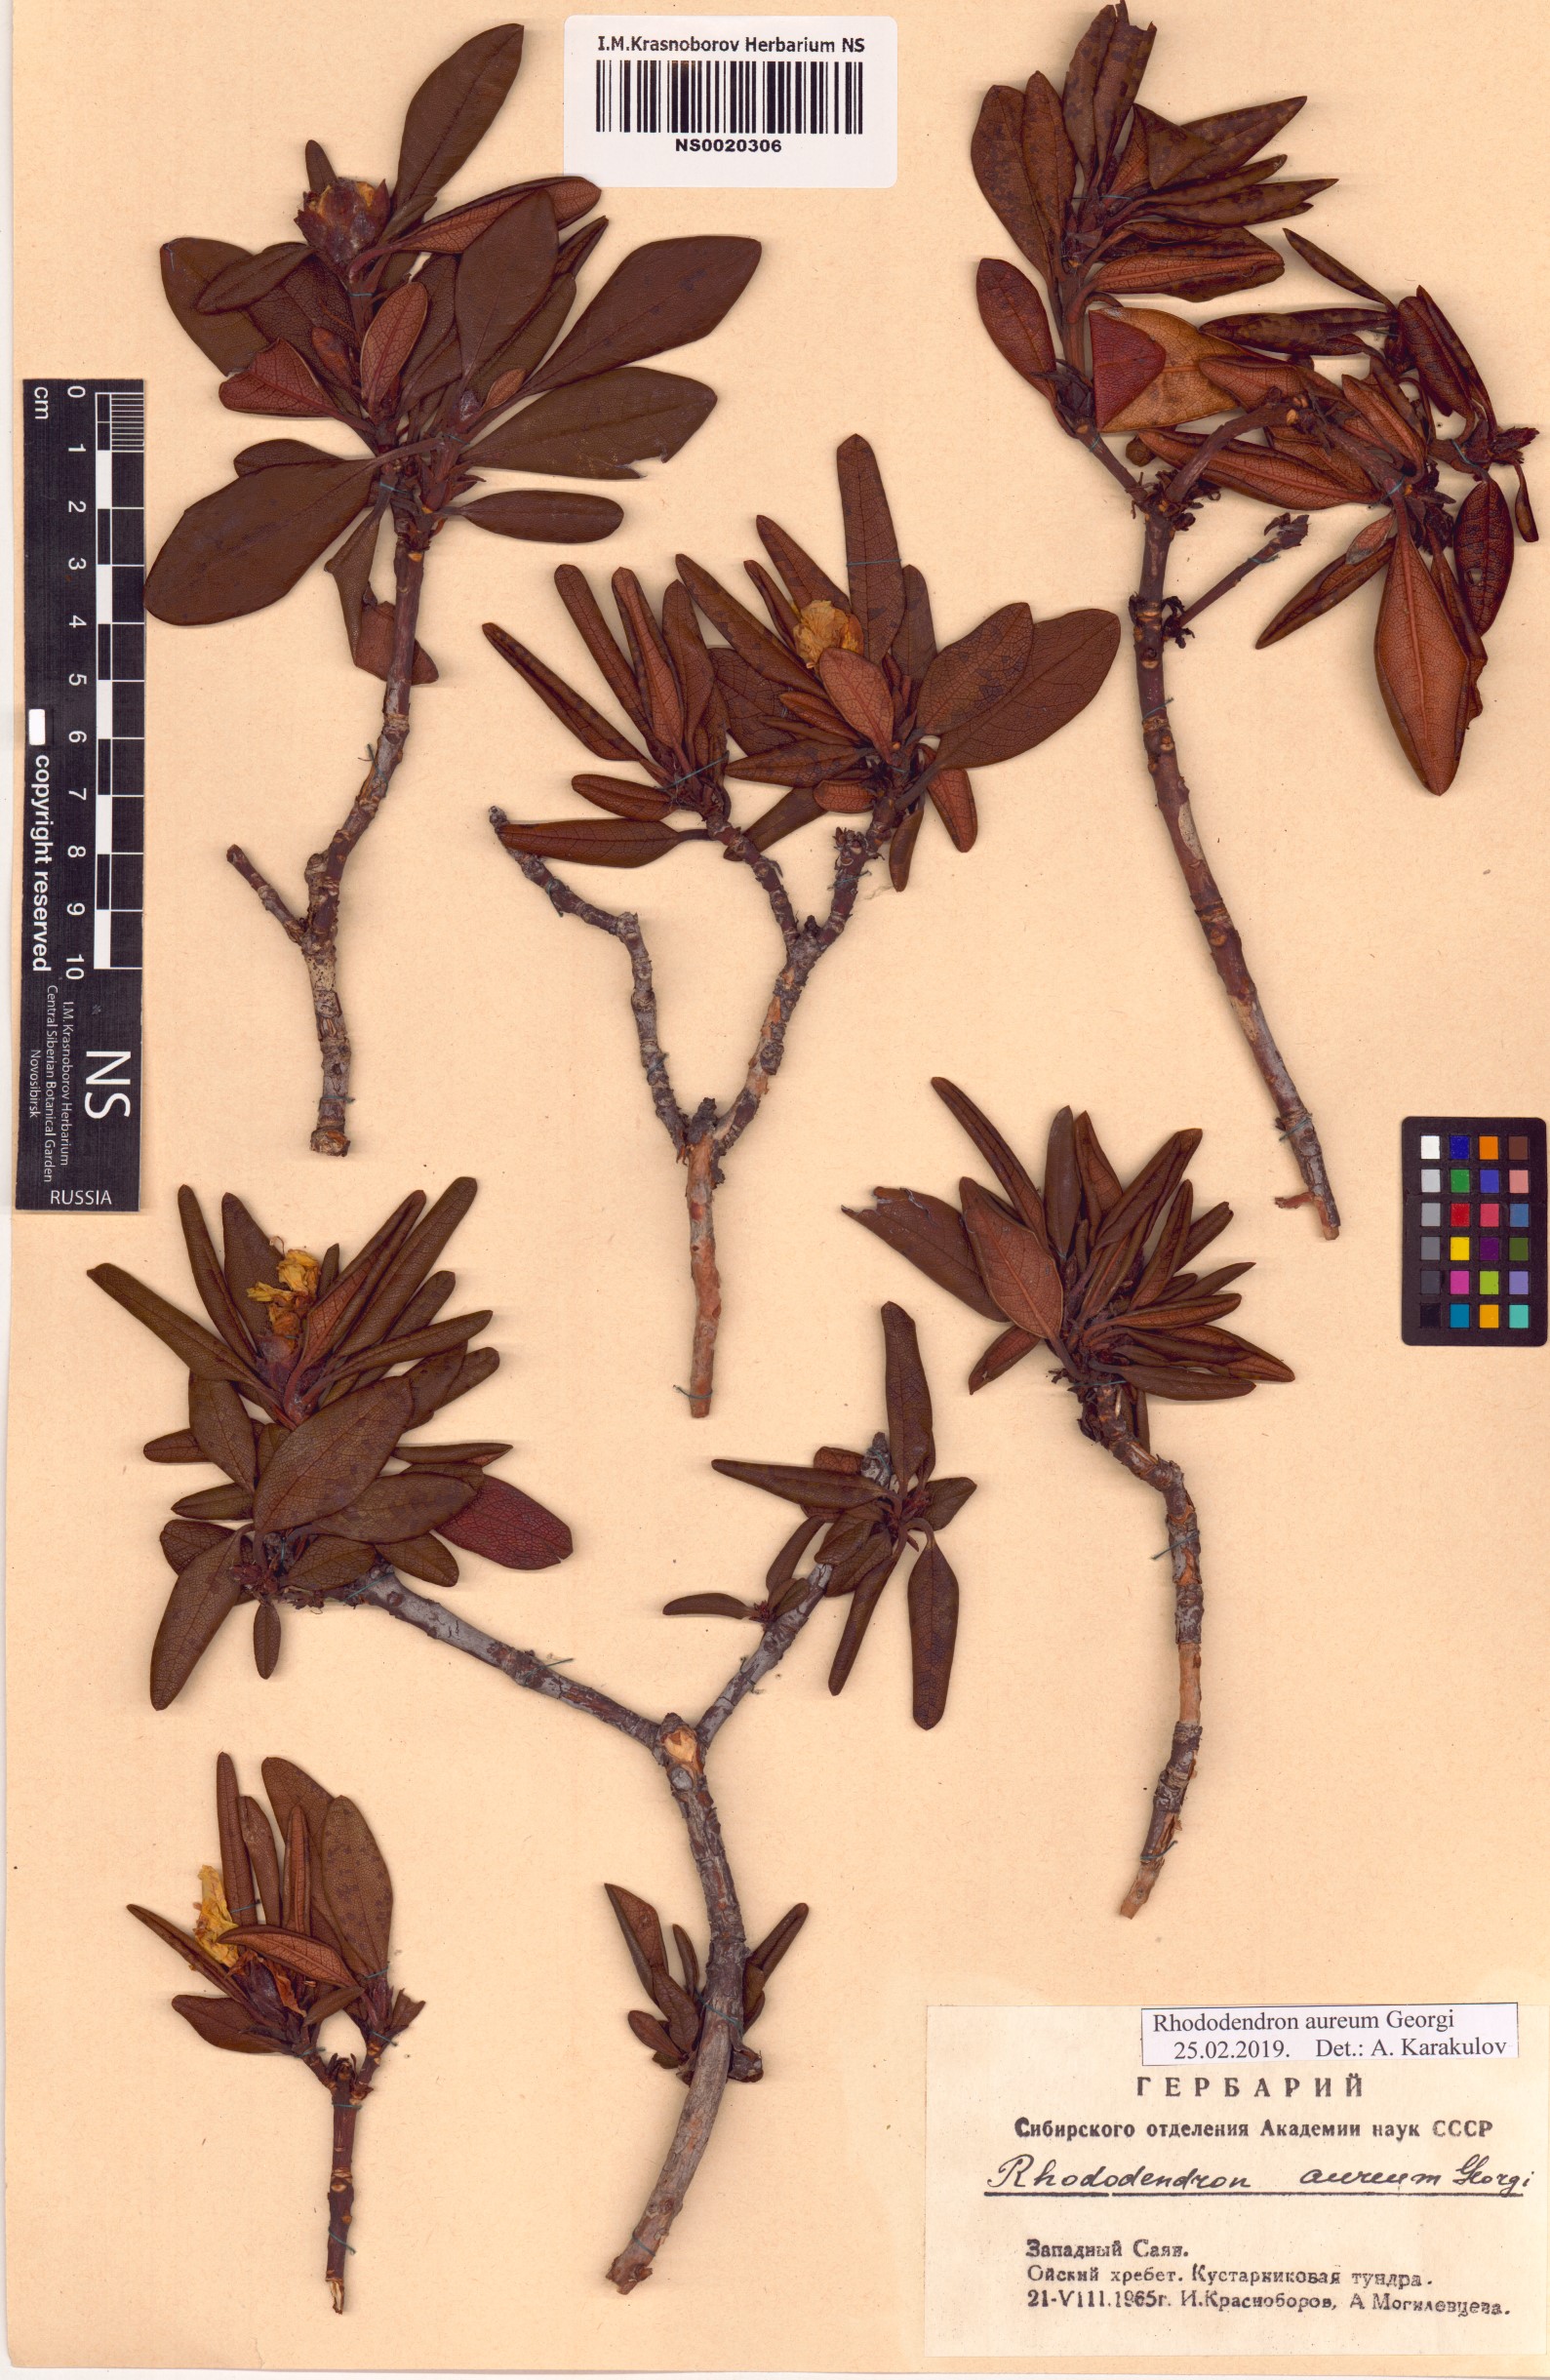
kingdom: Plantae
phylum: Tracheophyta
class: Magnoliopsida
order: Ericales
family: Ericaceae
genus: Rhododendron
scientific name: Rhododendron aureum
